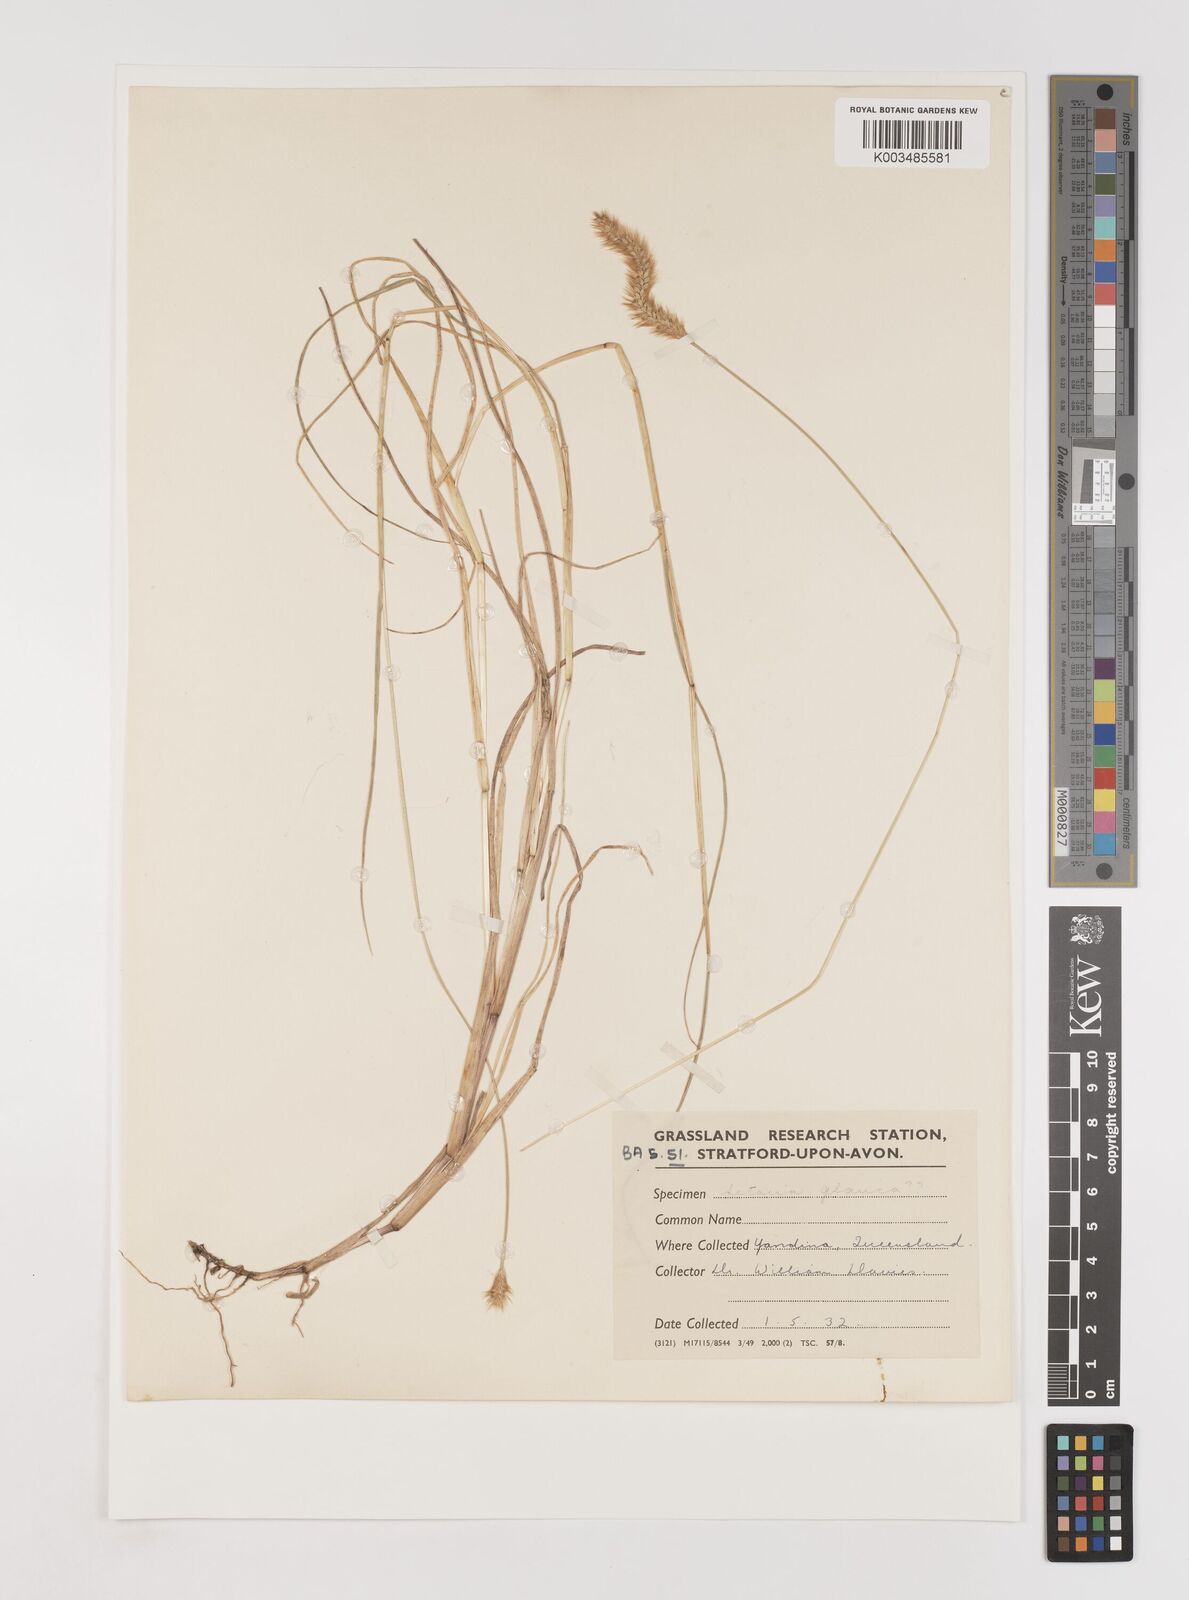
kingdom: Plantae
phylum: Tracheophyta
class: Liliopsida
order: Poales
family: Poaceae
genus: Setaria
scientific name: Setaria
